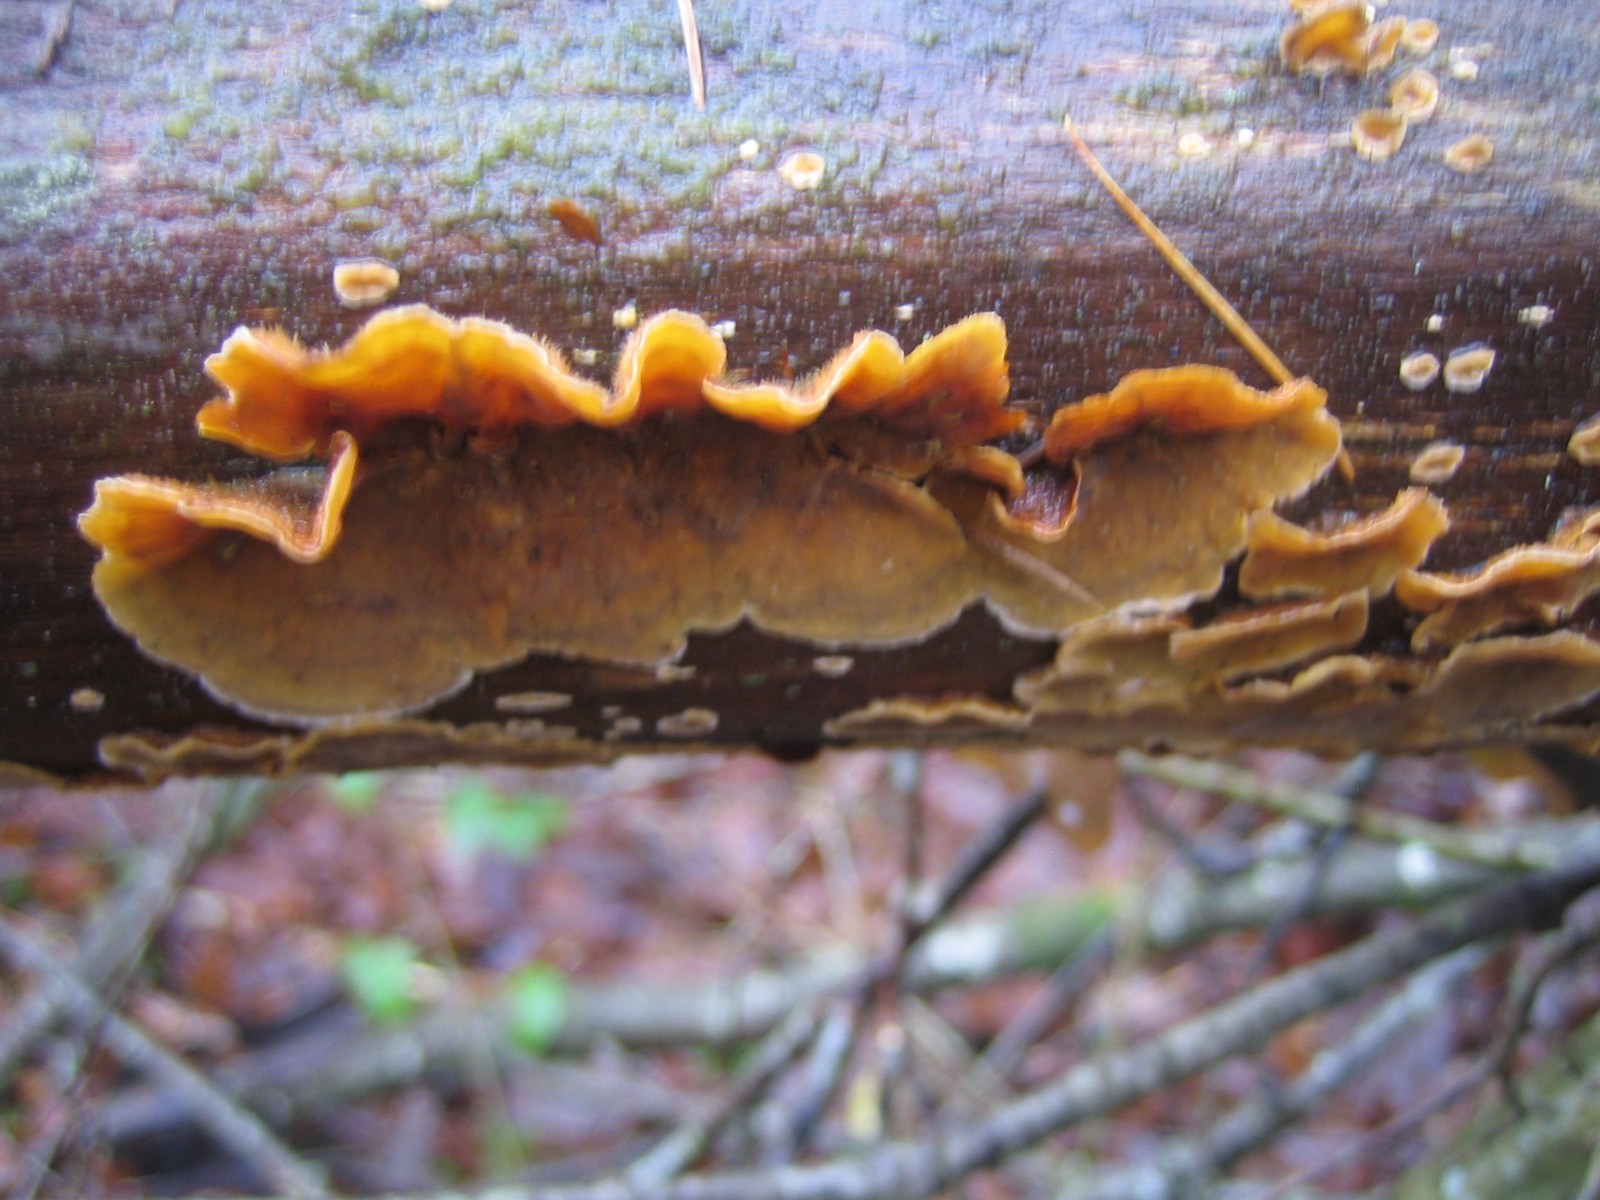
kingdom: Fungi
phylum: Basidiomycota
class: Agaricomycetes
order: Russulales
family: Stereaceae
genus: Stereum
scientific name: Stereum hirsutum
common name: håret lædersvamp
